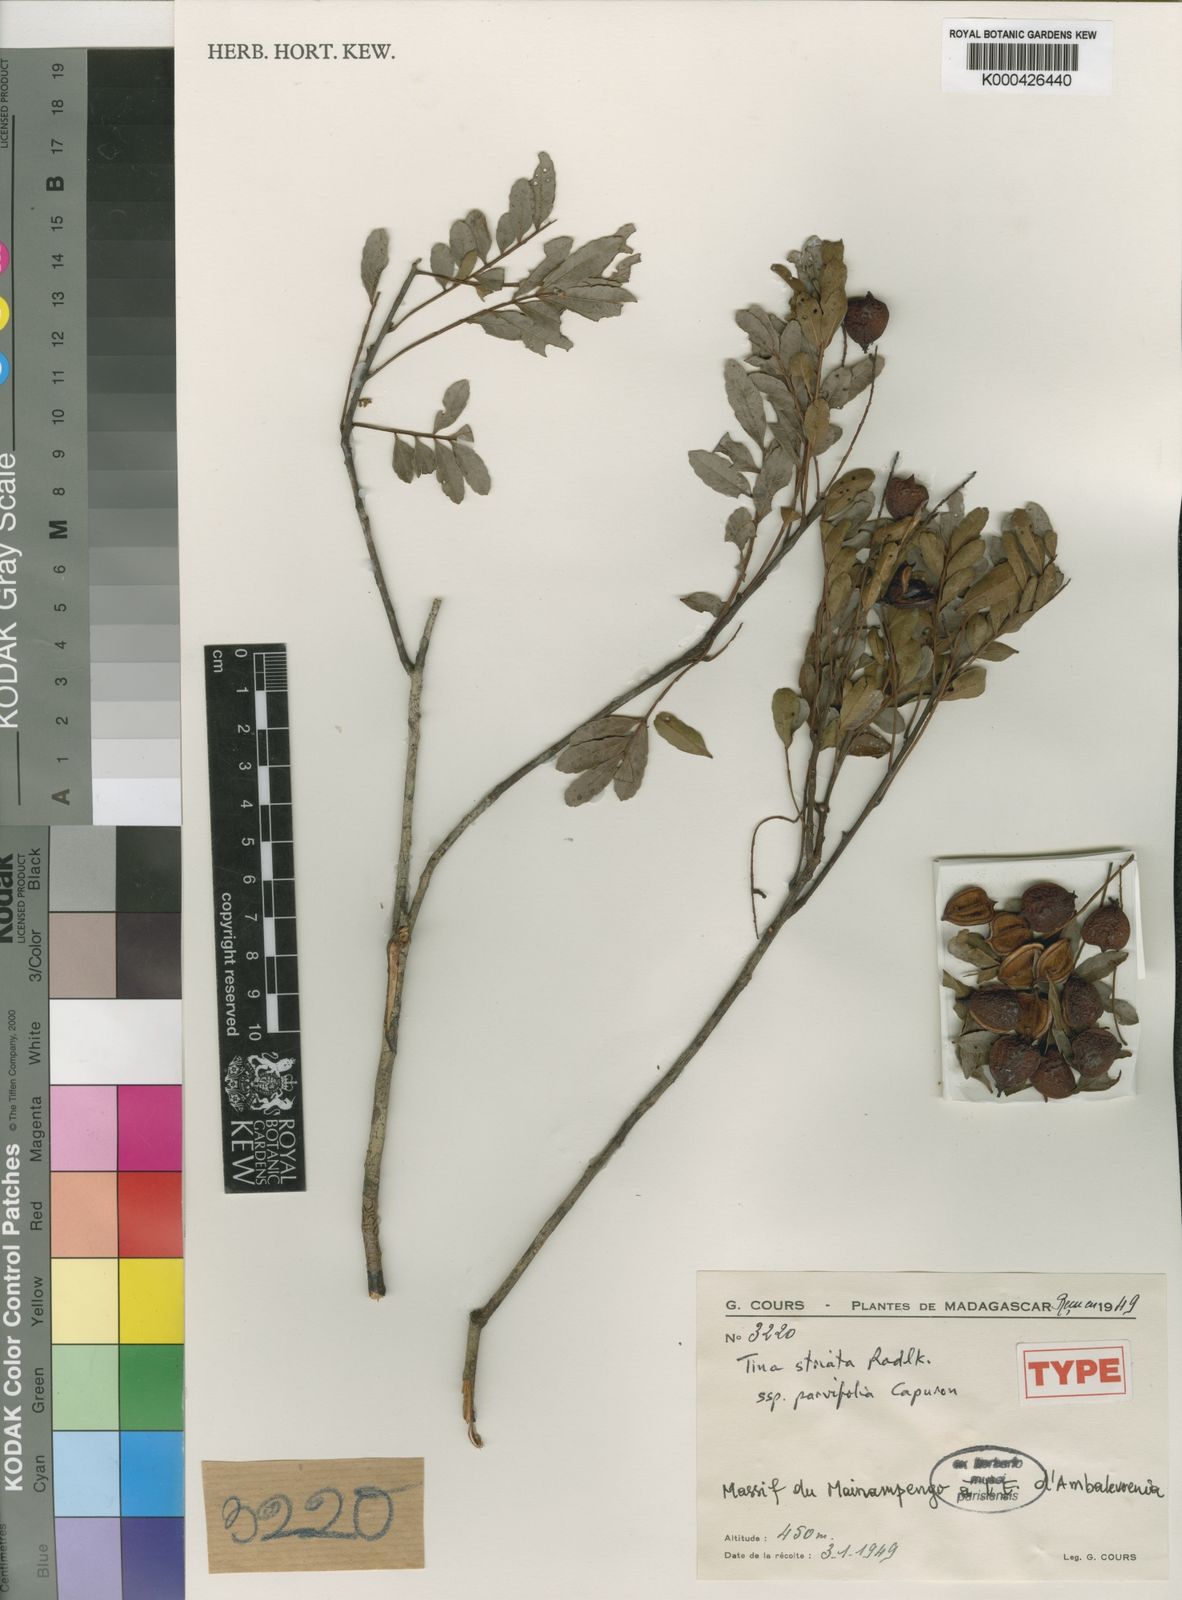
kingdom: Plantae
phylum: Tracheophyta
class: Magnoliopsida
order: Sapindales
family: Sapindaceae
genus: Tina
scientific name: Tina striata
